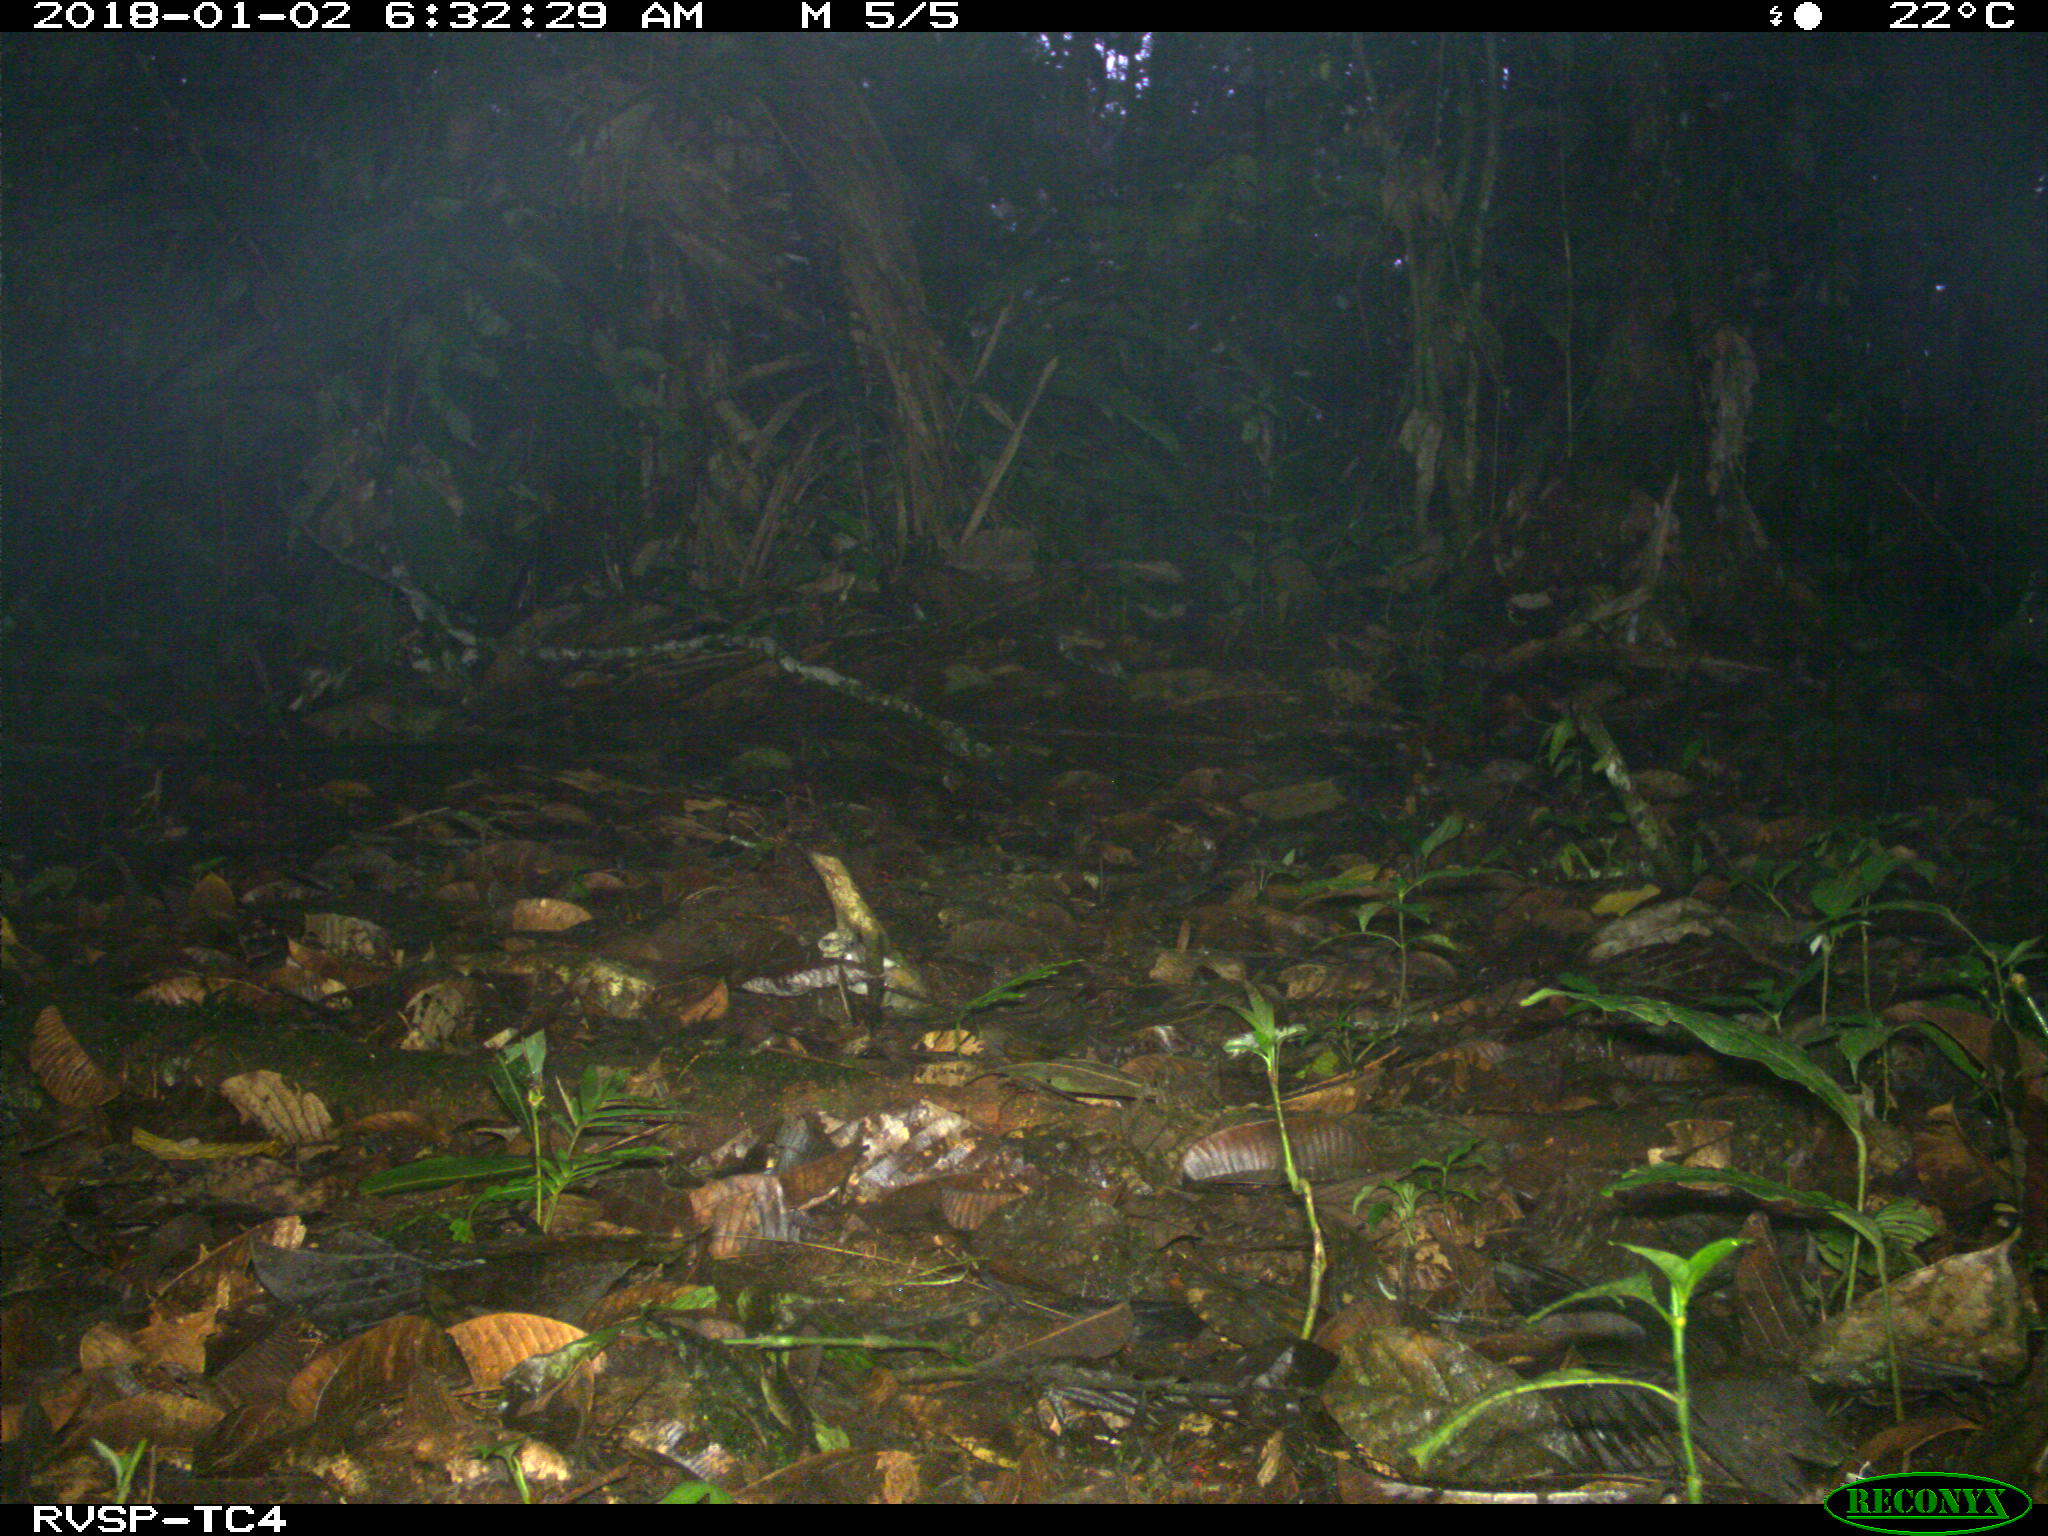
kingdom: Animalia
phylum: Chordata
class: Mammalia
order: Rodentia
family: Dasyproctidae
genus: Dasyprocta
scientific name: Dasyprocta punctata
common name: Central american agouti
